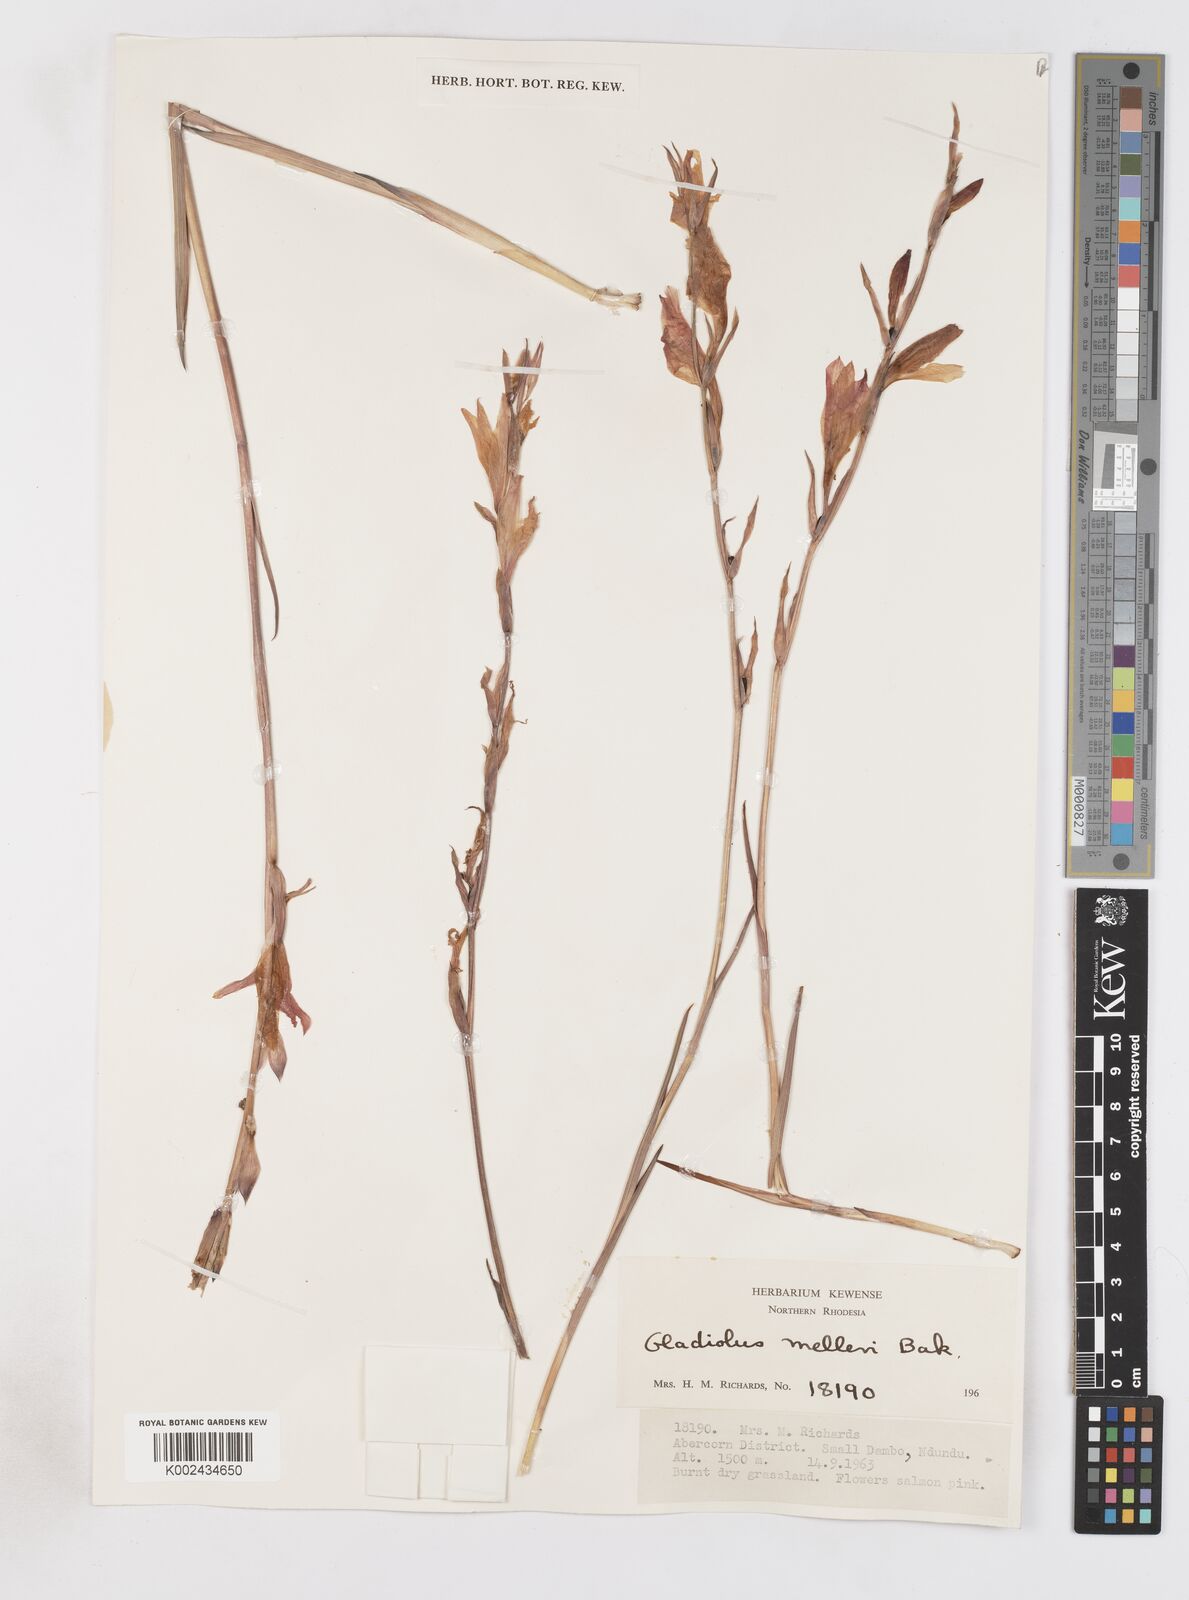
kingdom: Plantae
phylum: Tracheophyta
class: Liliopsida
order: Asparagales
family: Iridaceae
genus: Gladiolus
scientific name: Gladiolus melleri
